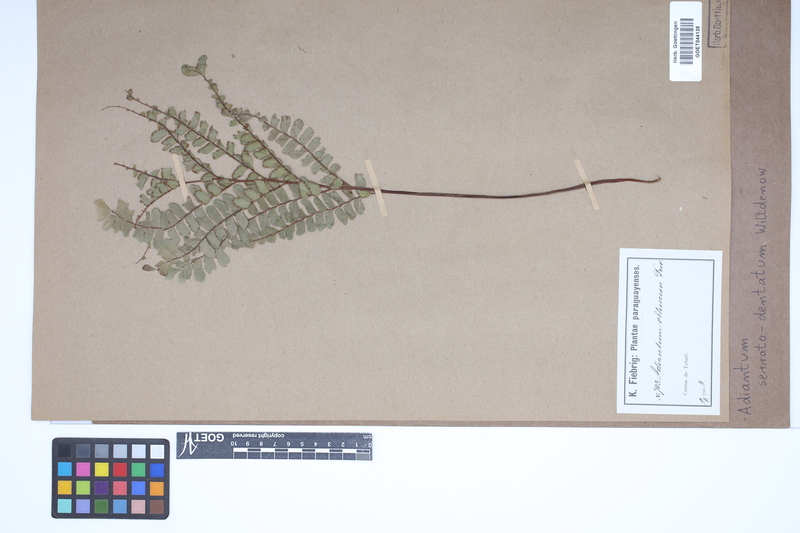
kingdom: Plantae
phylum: Tracheophyta
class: Polypodiopsida
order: Polypodiales
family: Pteridaceae
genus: Adiantum
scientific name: Adiantum serratodentatum
